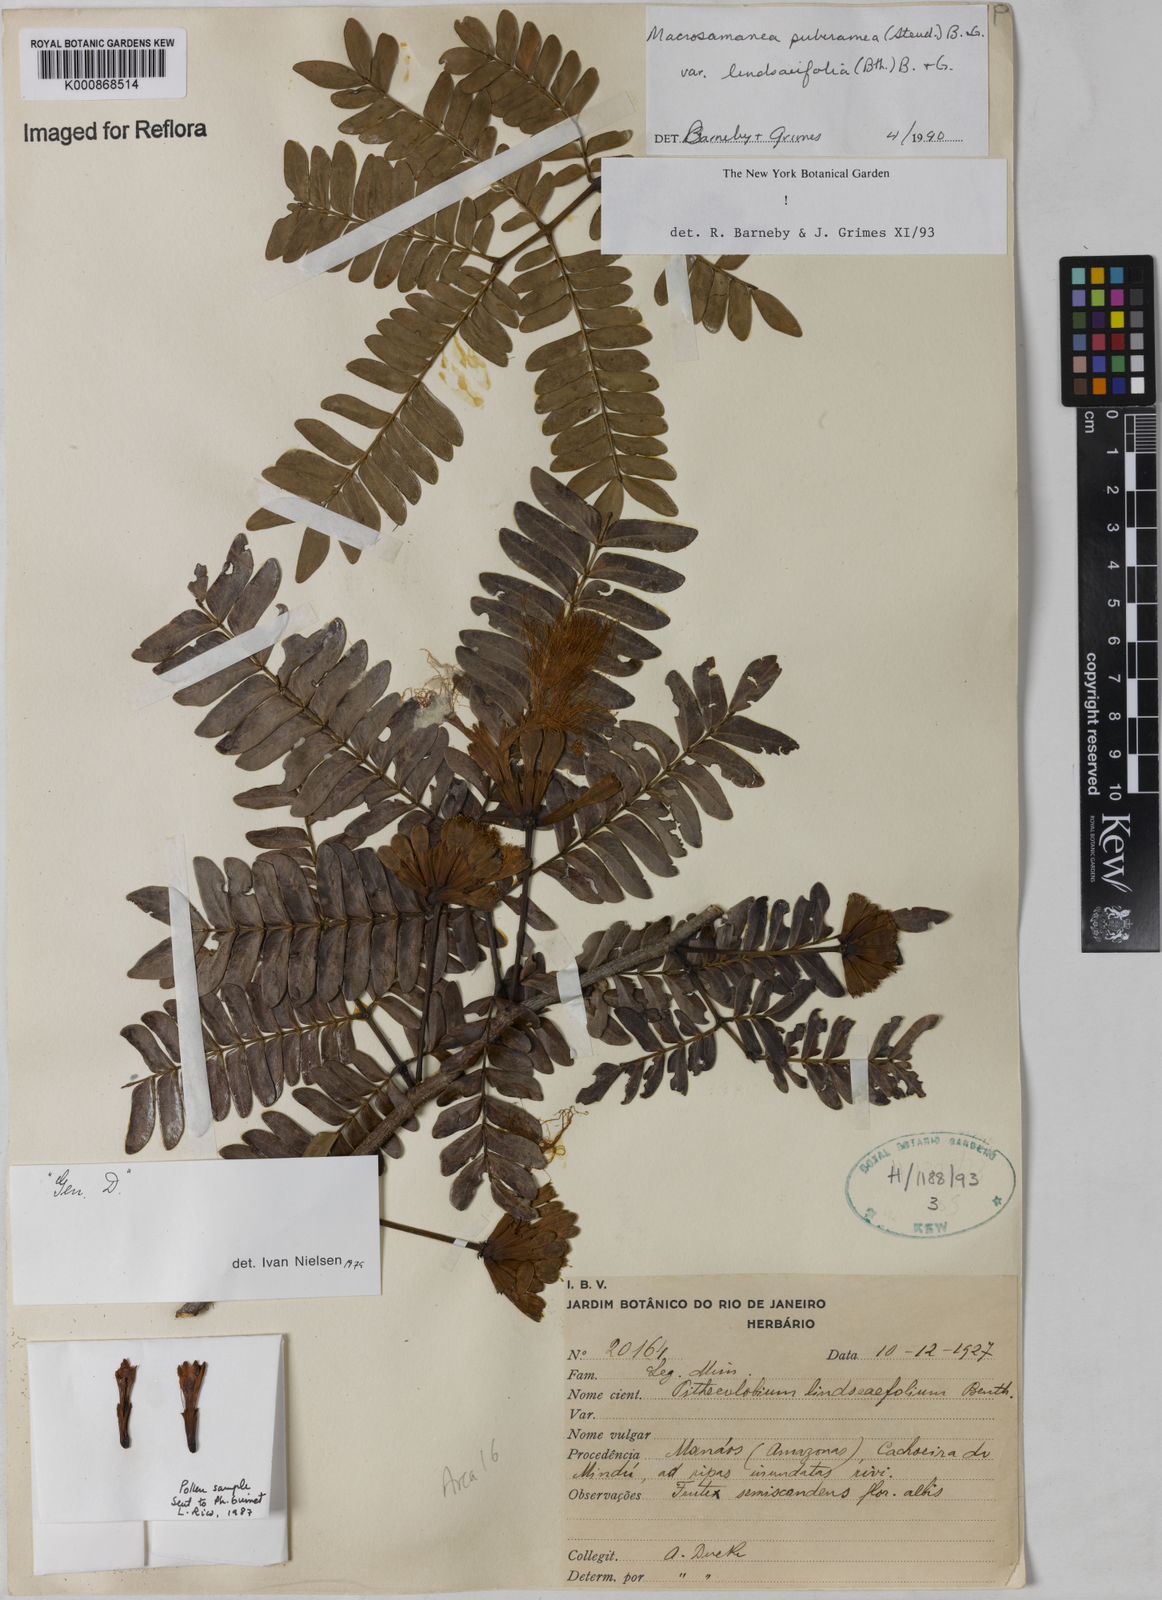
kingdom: Plantae
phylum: Tracheophyta
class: Magnoliopsida
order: Fabales
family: Fabaceae
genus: Macrosamanea
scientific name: Macrosamanea pubiramea
